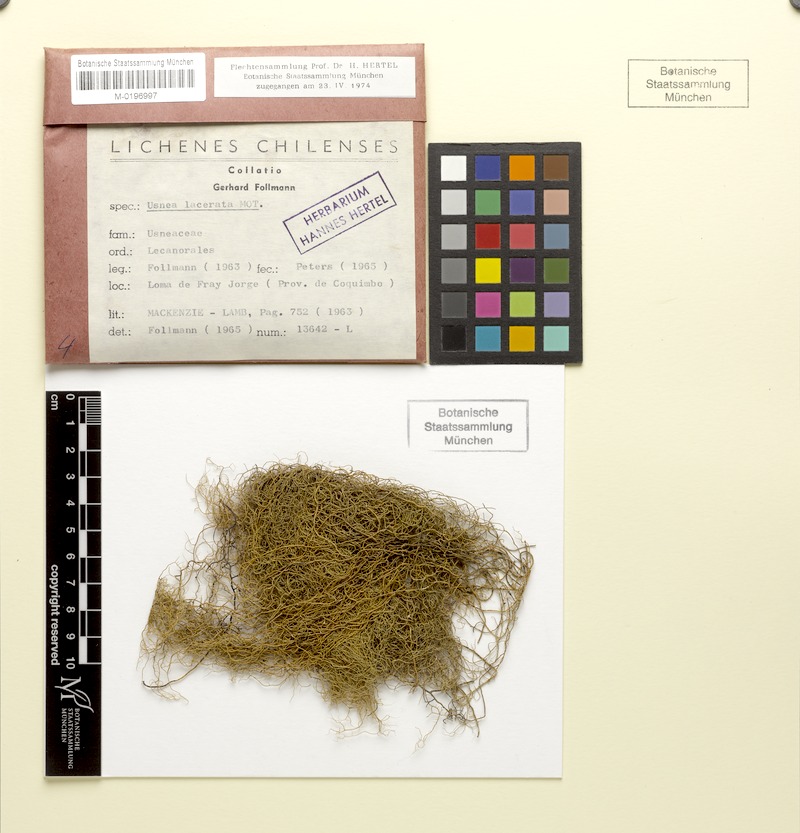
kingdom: Fungi
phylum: Ascomycota
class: Lecanoromycetes
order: Lecanorales
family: Parmeliaceae
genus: Usnea
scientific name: Usnea lacerata
